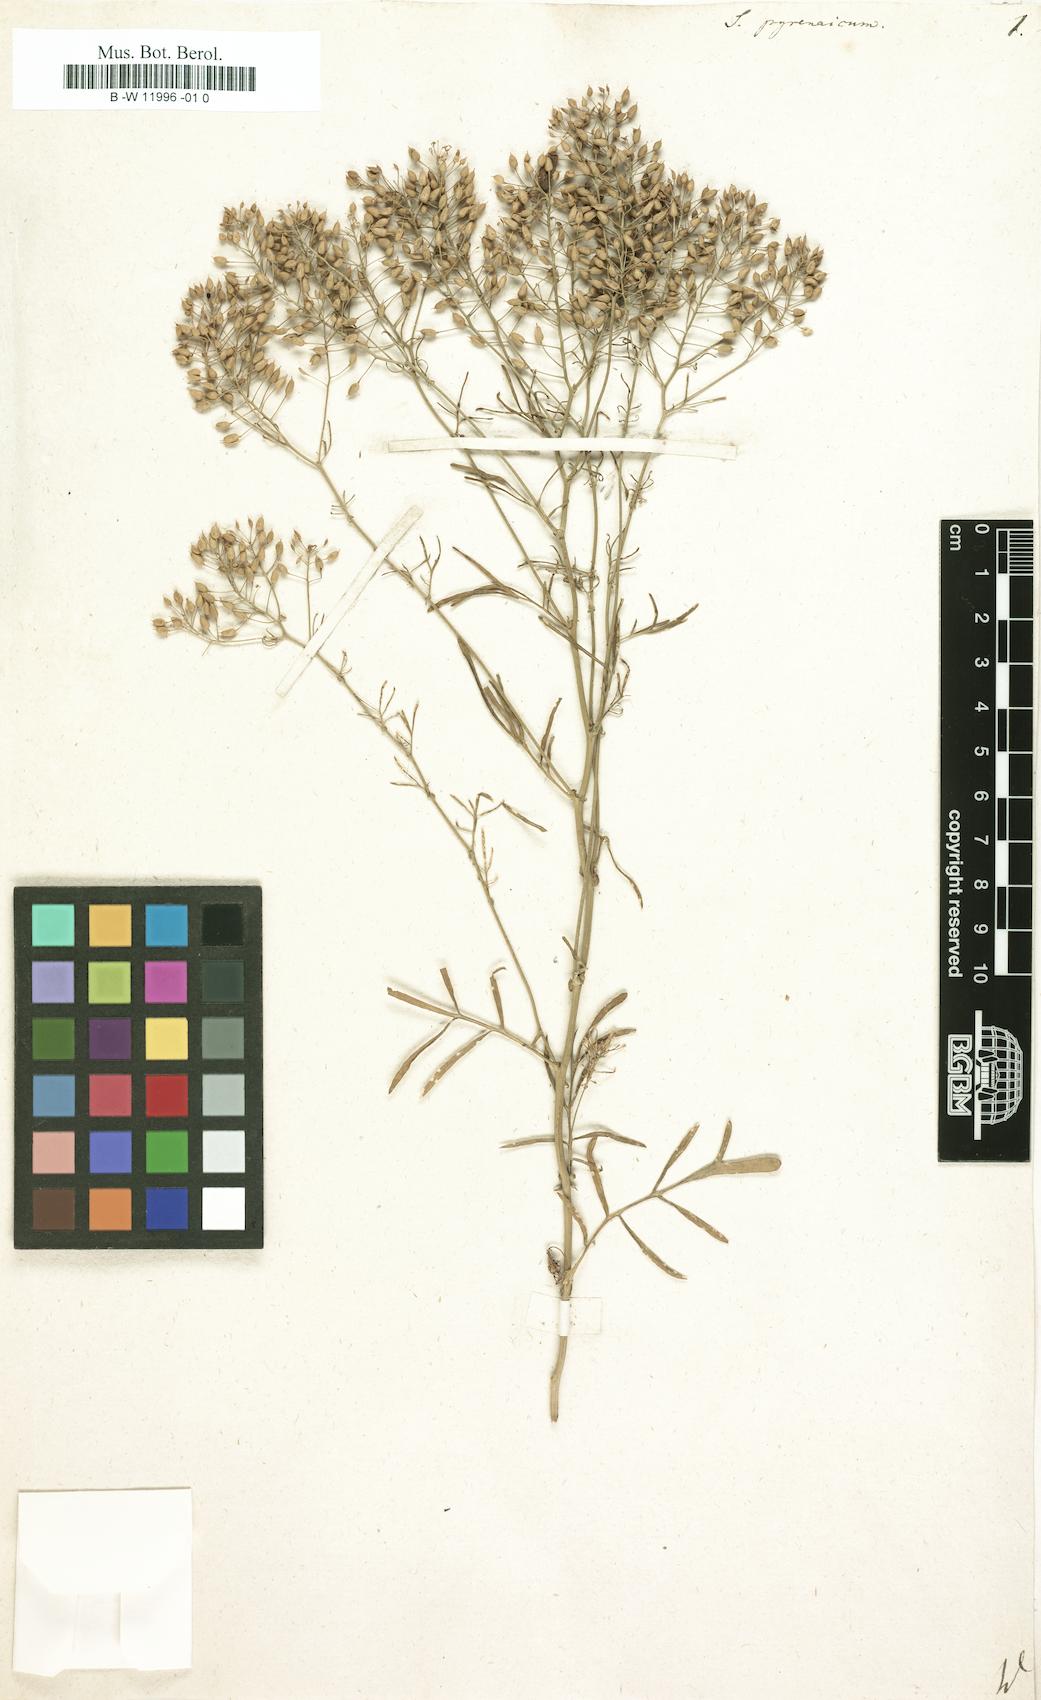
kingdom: Plantae
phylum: Tracheophyta
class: Magnoliopsida
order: Brassicales
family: Brassicaceae
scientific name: Brassicaceae
